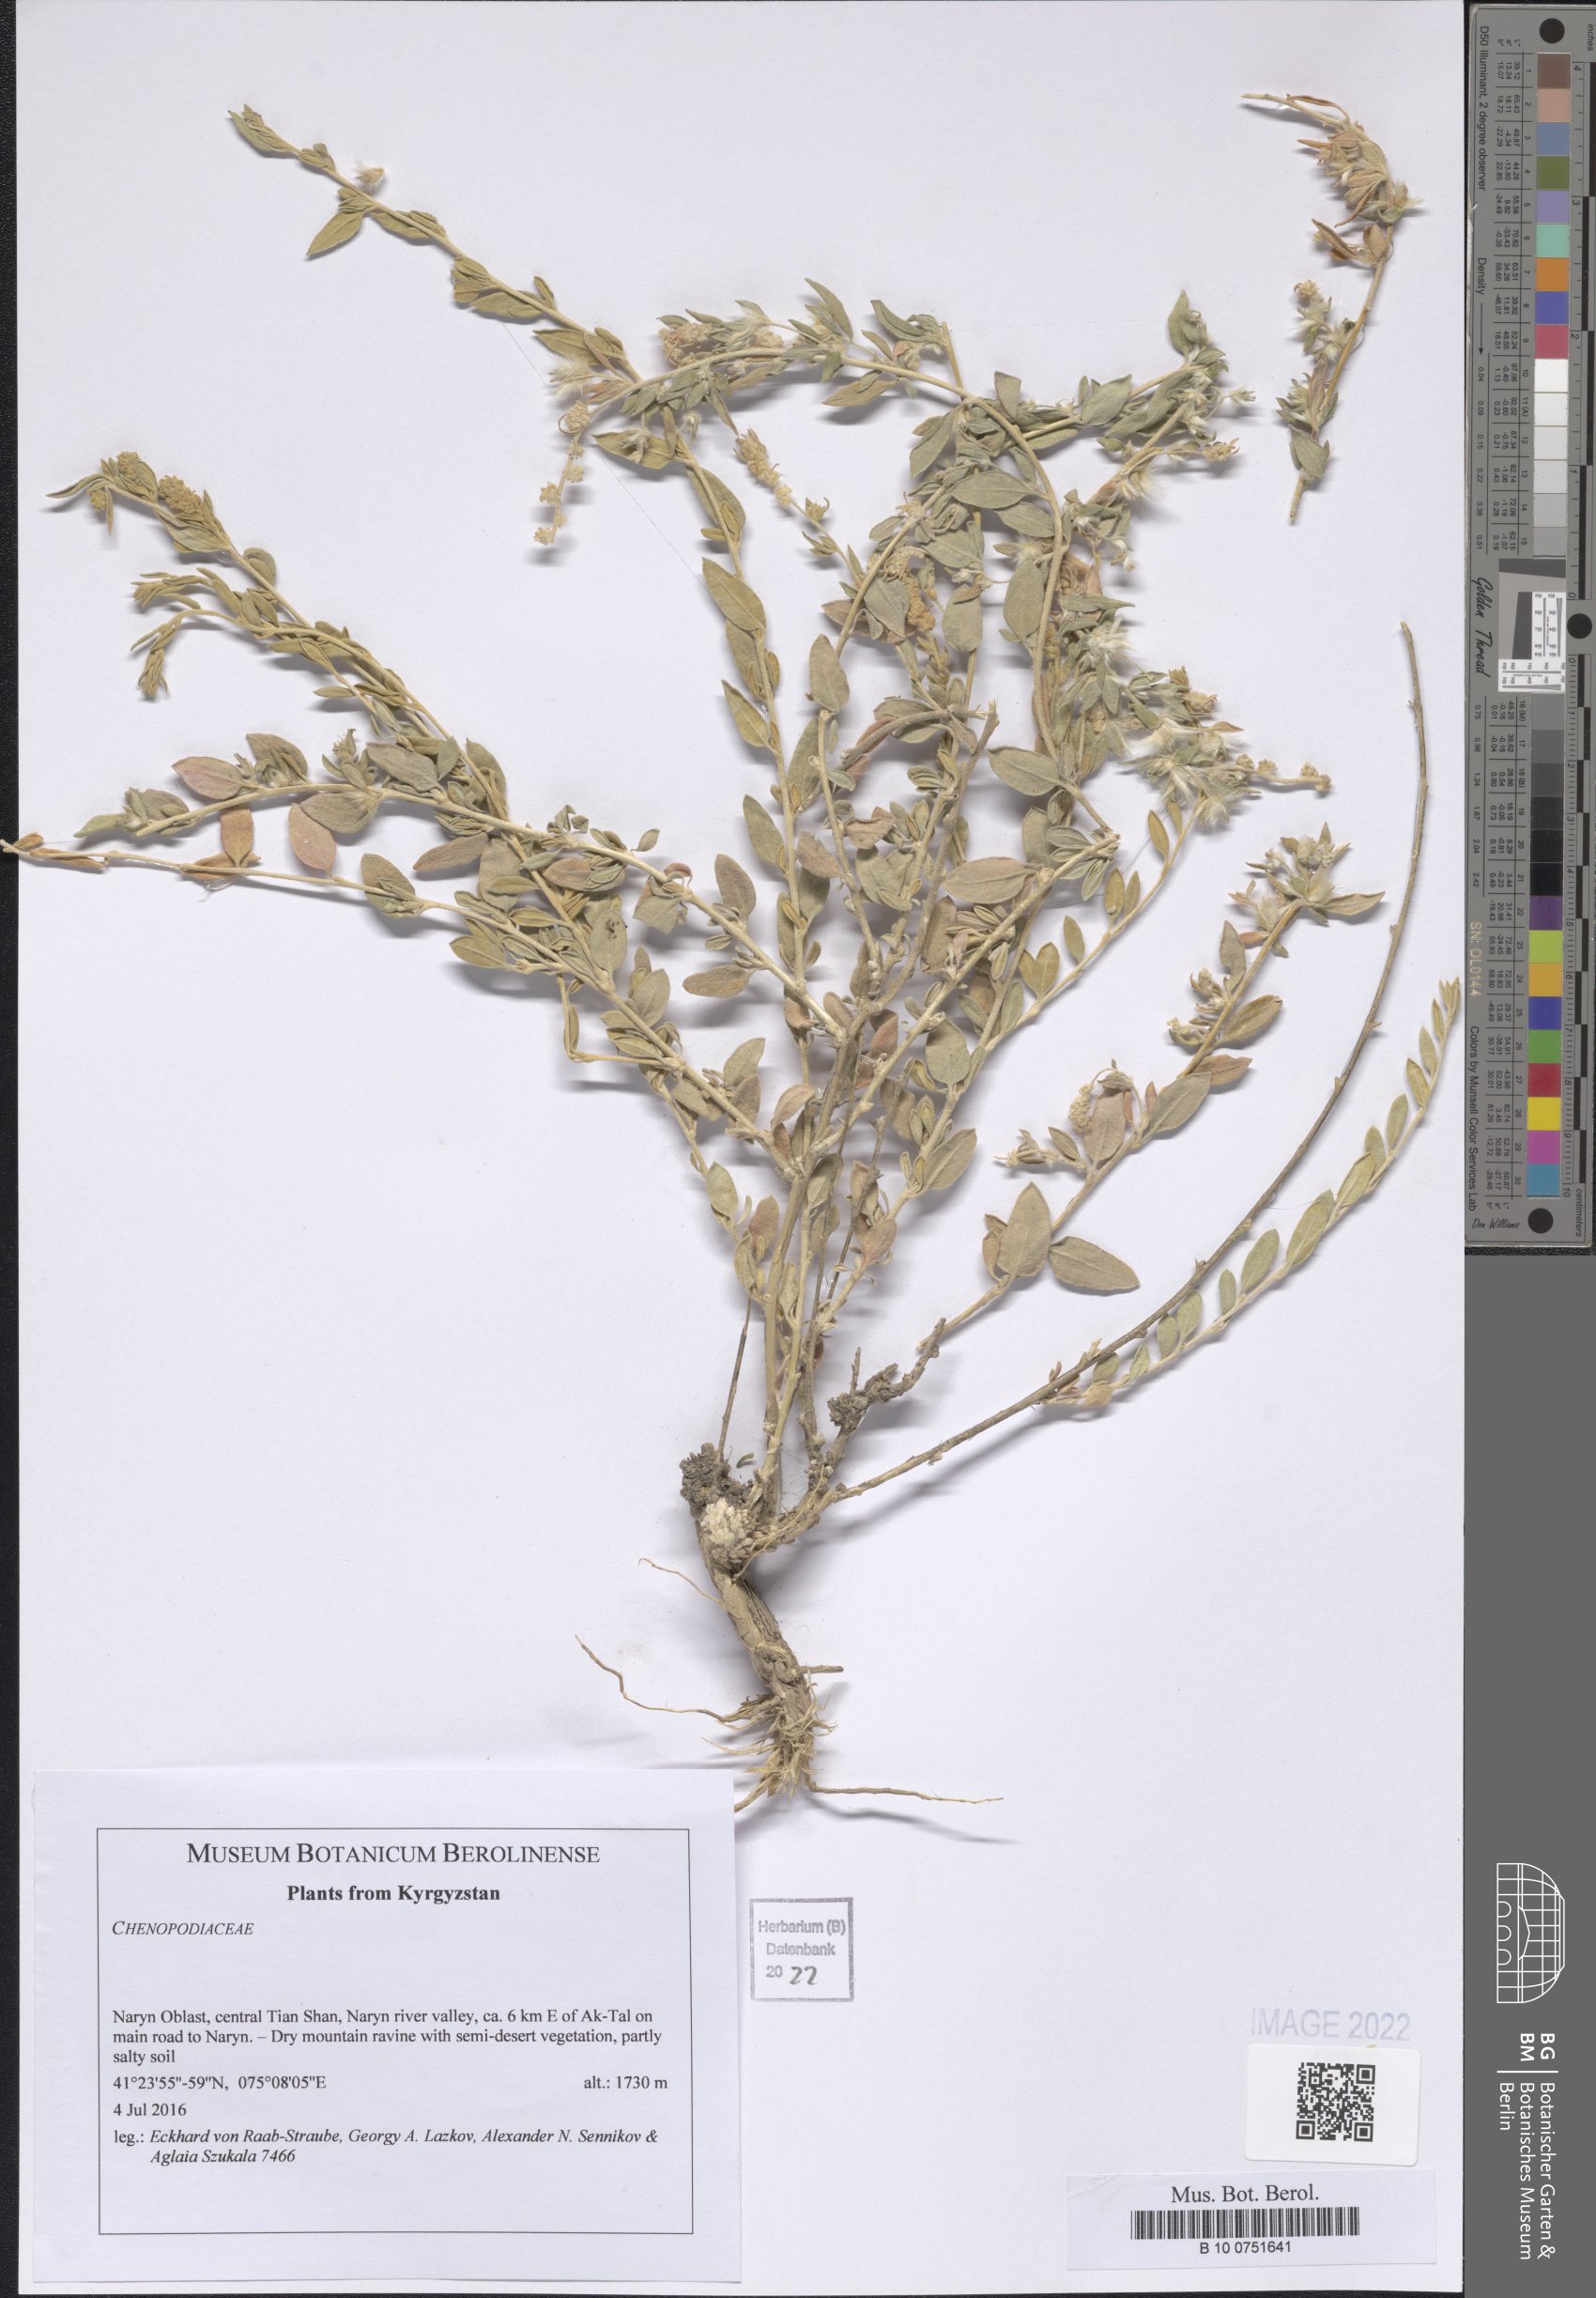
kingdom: Plantae
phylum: Tracheophyta
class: Magnoliopsida
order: Caryophyllales
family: Amaranthaceae
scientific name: Amaranthaceae
